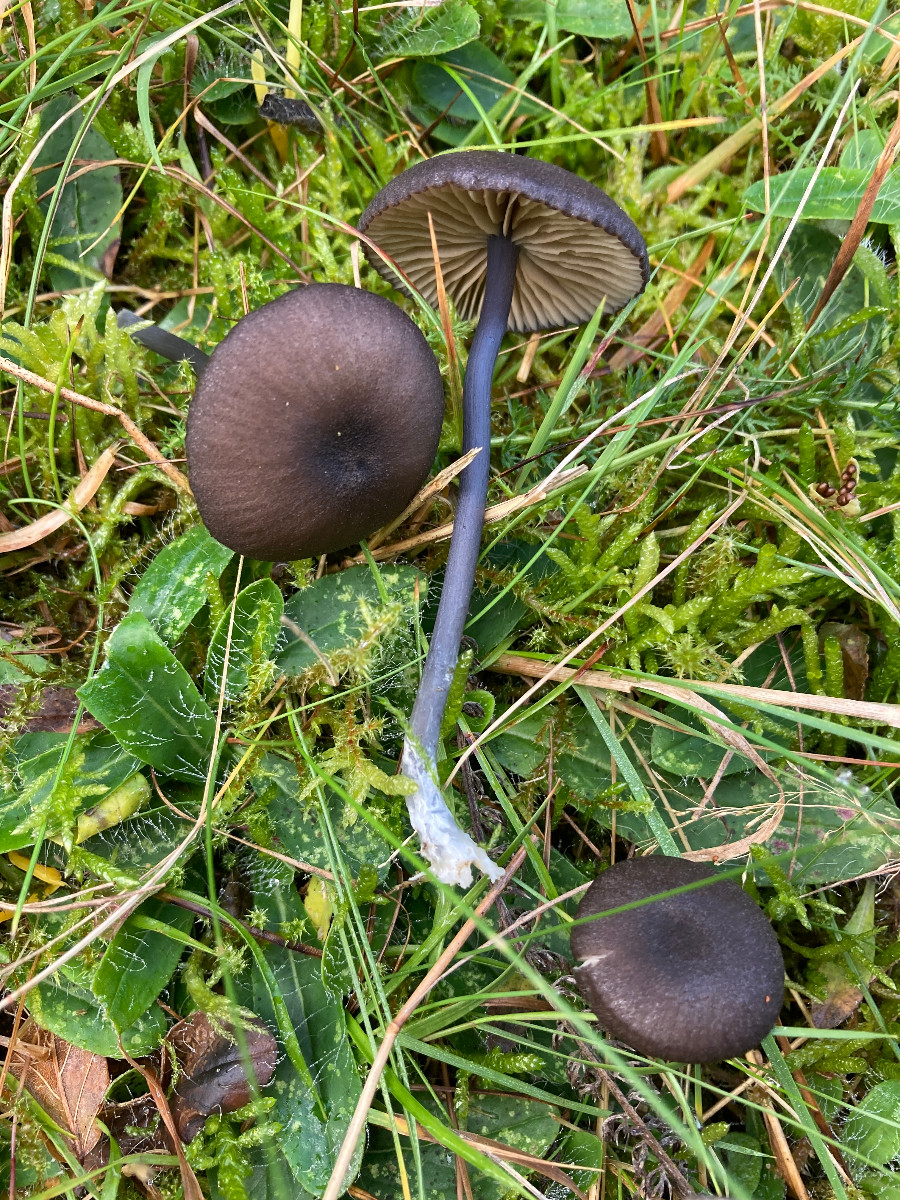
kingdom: Fungi
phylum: Basidiomycota
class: Agaricomycetes
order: Agaricales
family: Entolomataceae
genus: Entoloma
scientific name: Entoloma
